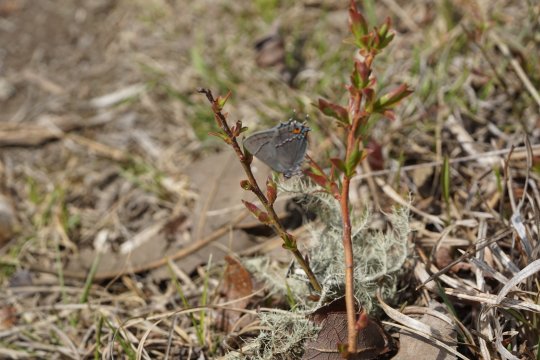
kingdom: Animalia
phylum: Arthropoda
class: Insecta
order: Lepidoptera
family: Lycaenidae
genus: Strymon
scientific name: Strymon melinus
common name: Gray Hairstreak
